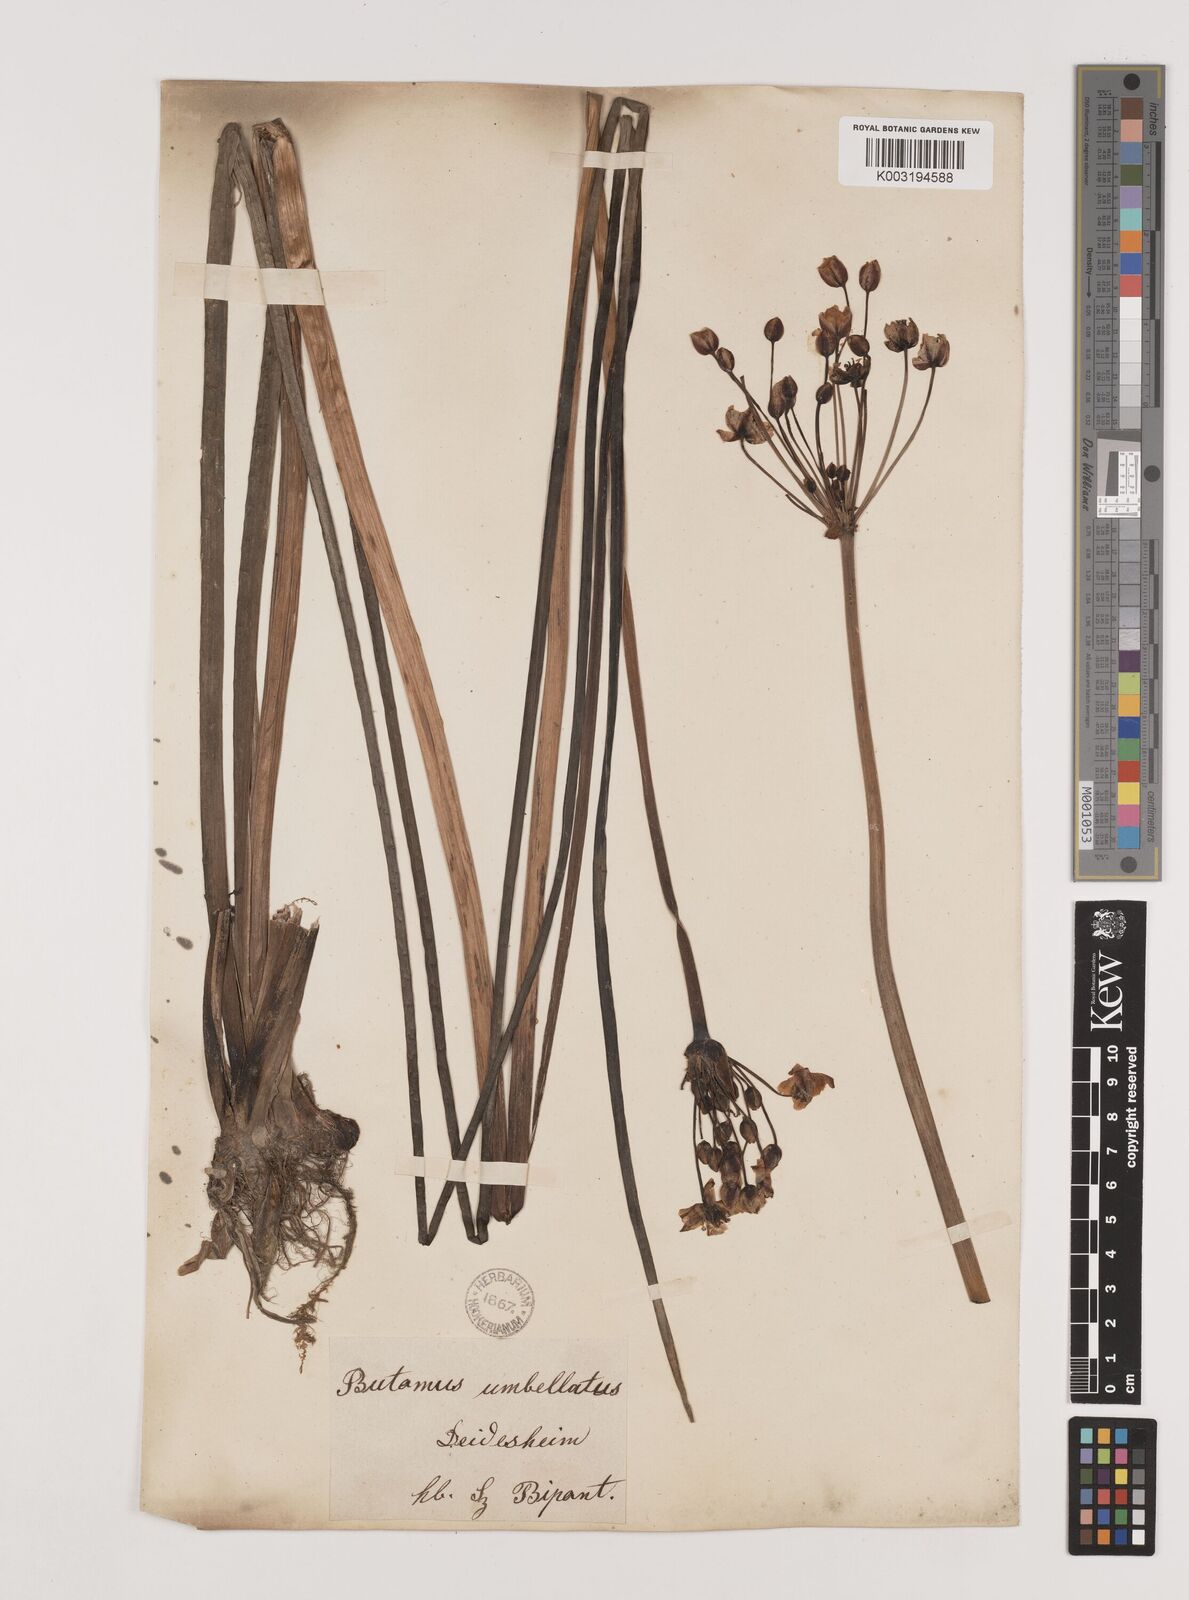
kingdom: Plantae
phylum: Tracheophyta
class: Liliopsida
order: Alismatales
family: Butomaceae
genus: Butomus
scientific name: Butomus umbellatus
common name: Flowering-rush
